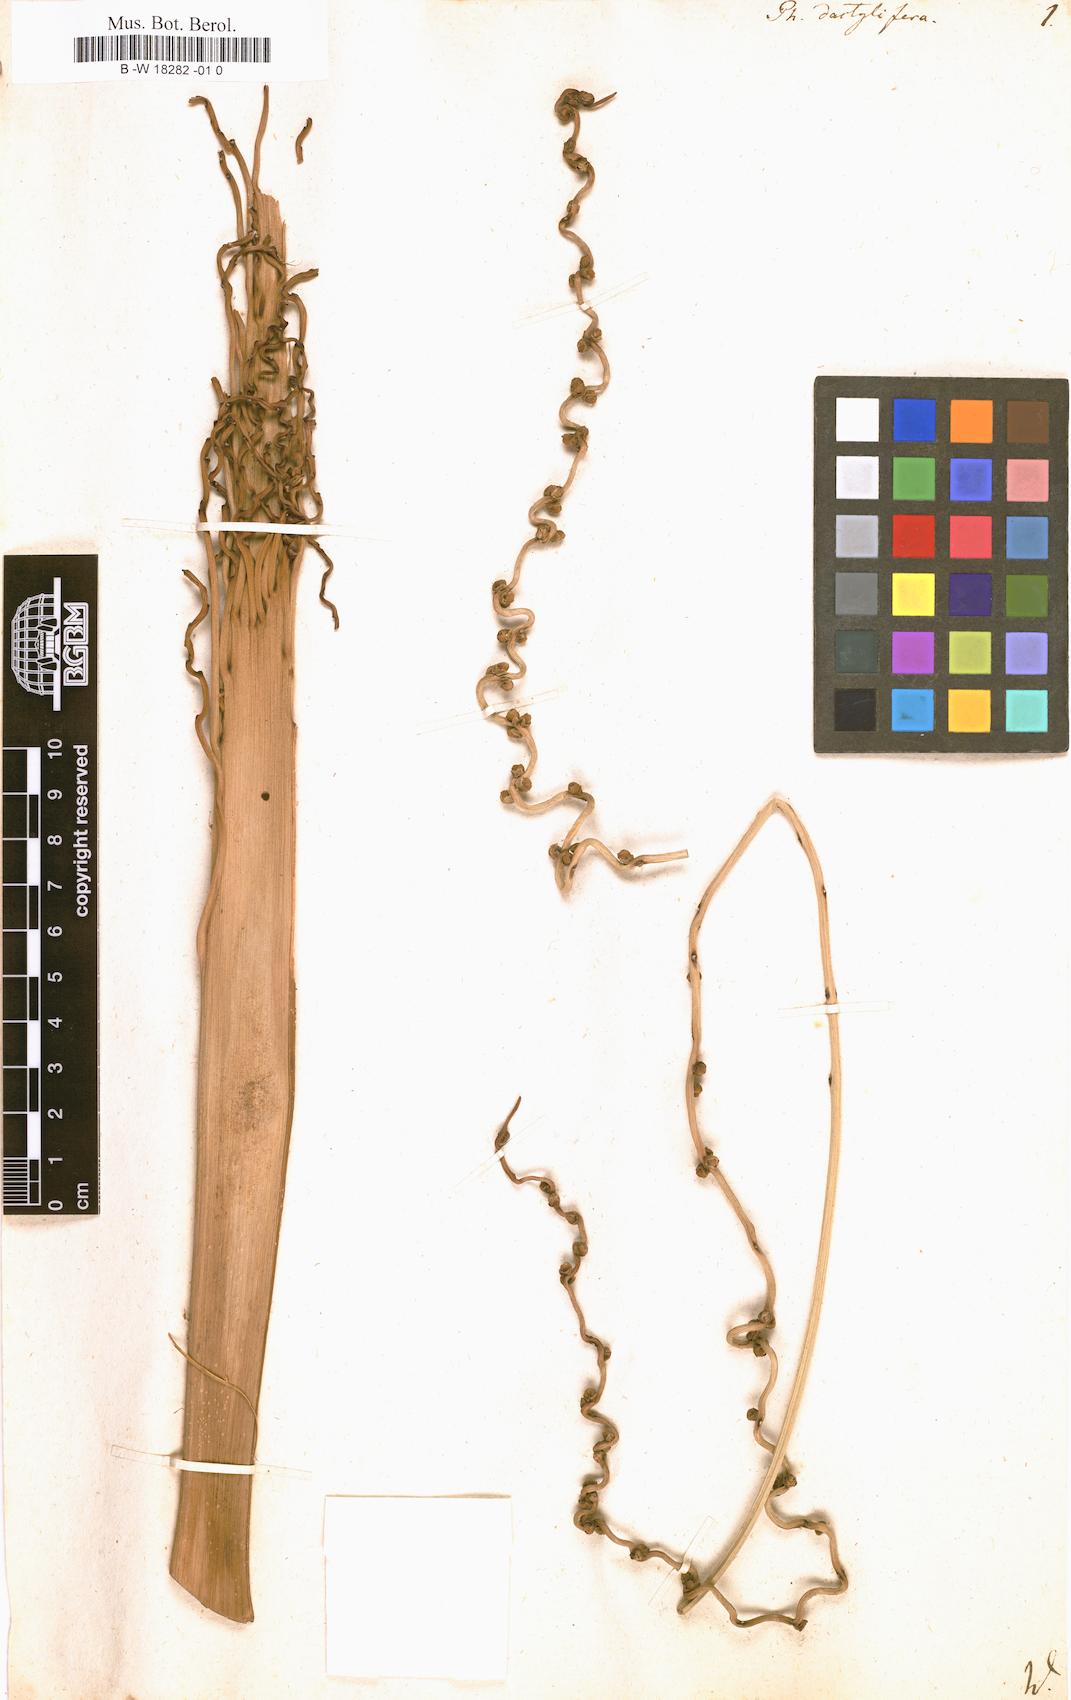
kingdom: Plantae
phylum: Tracheophyta
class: Liliopsida
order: Arecales
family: Arecaceae
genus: Phoenix
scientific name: Phoenix dactylifera
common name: Date palm
